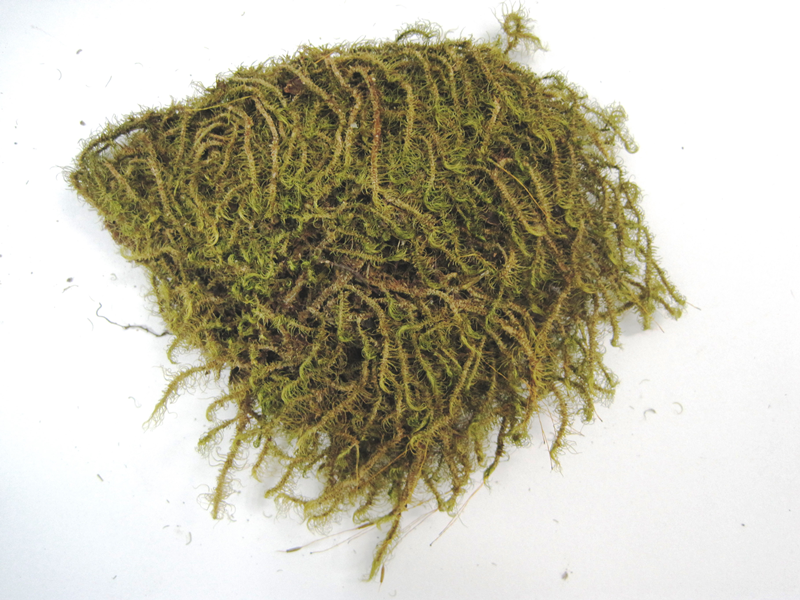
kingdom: Plantae
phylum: Bryophyta
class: Bryopsida
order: Dicranales
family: Dicranaceae
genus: Dicranum
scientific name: Dicranum psathyrum
